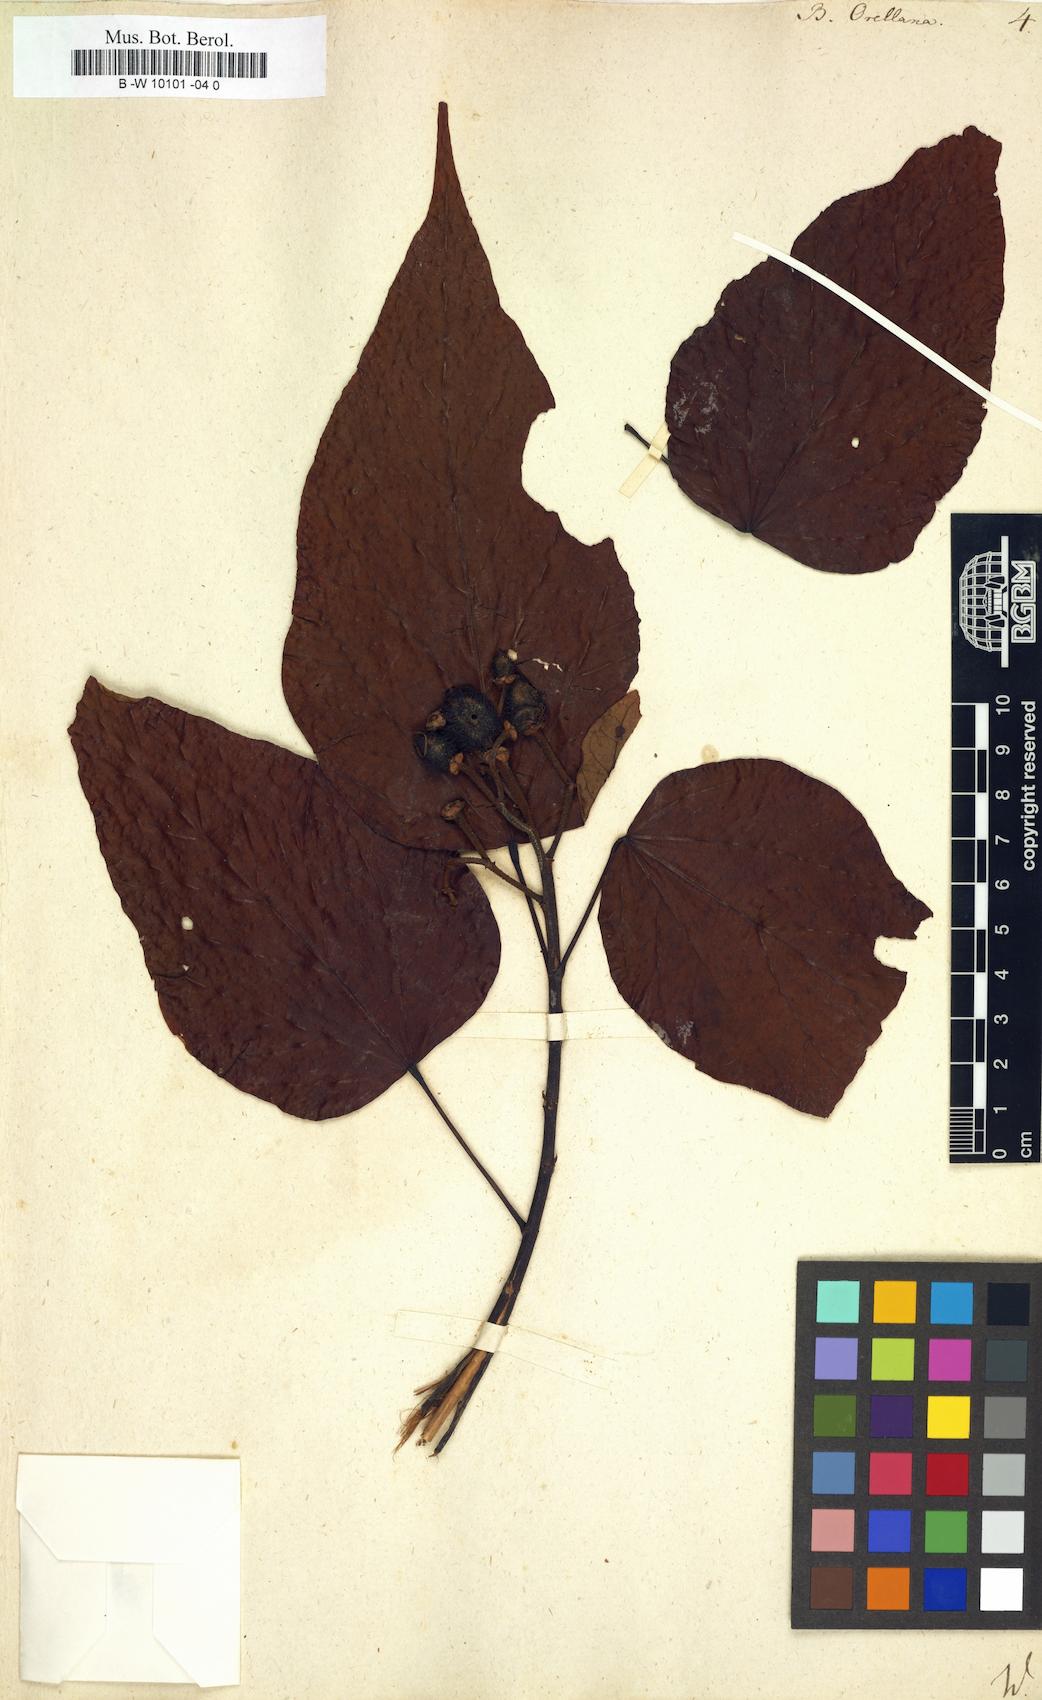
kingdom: Plantae
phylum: Tracheophyta
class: Magnoliopsida
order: Malvales
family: Bixaceae
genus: Bixa
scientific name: Bixa orellana
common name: Lipsticktree
